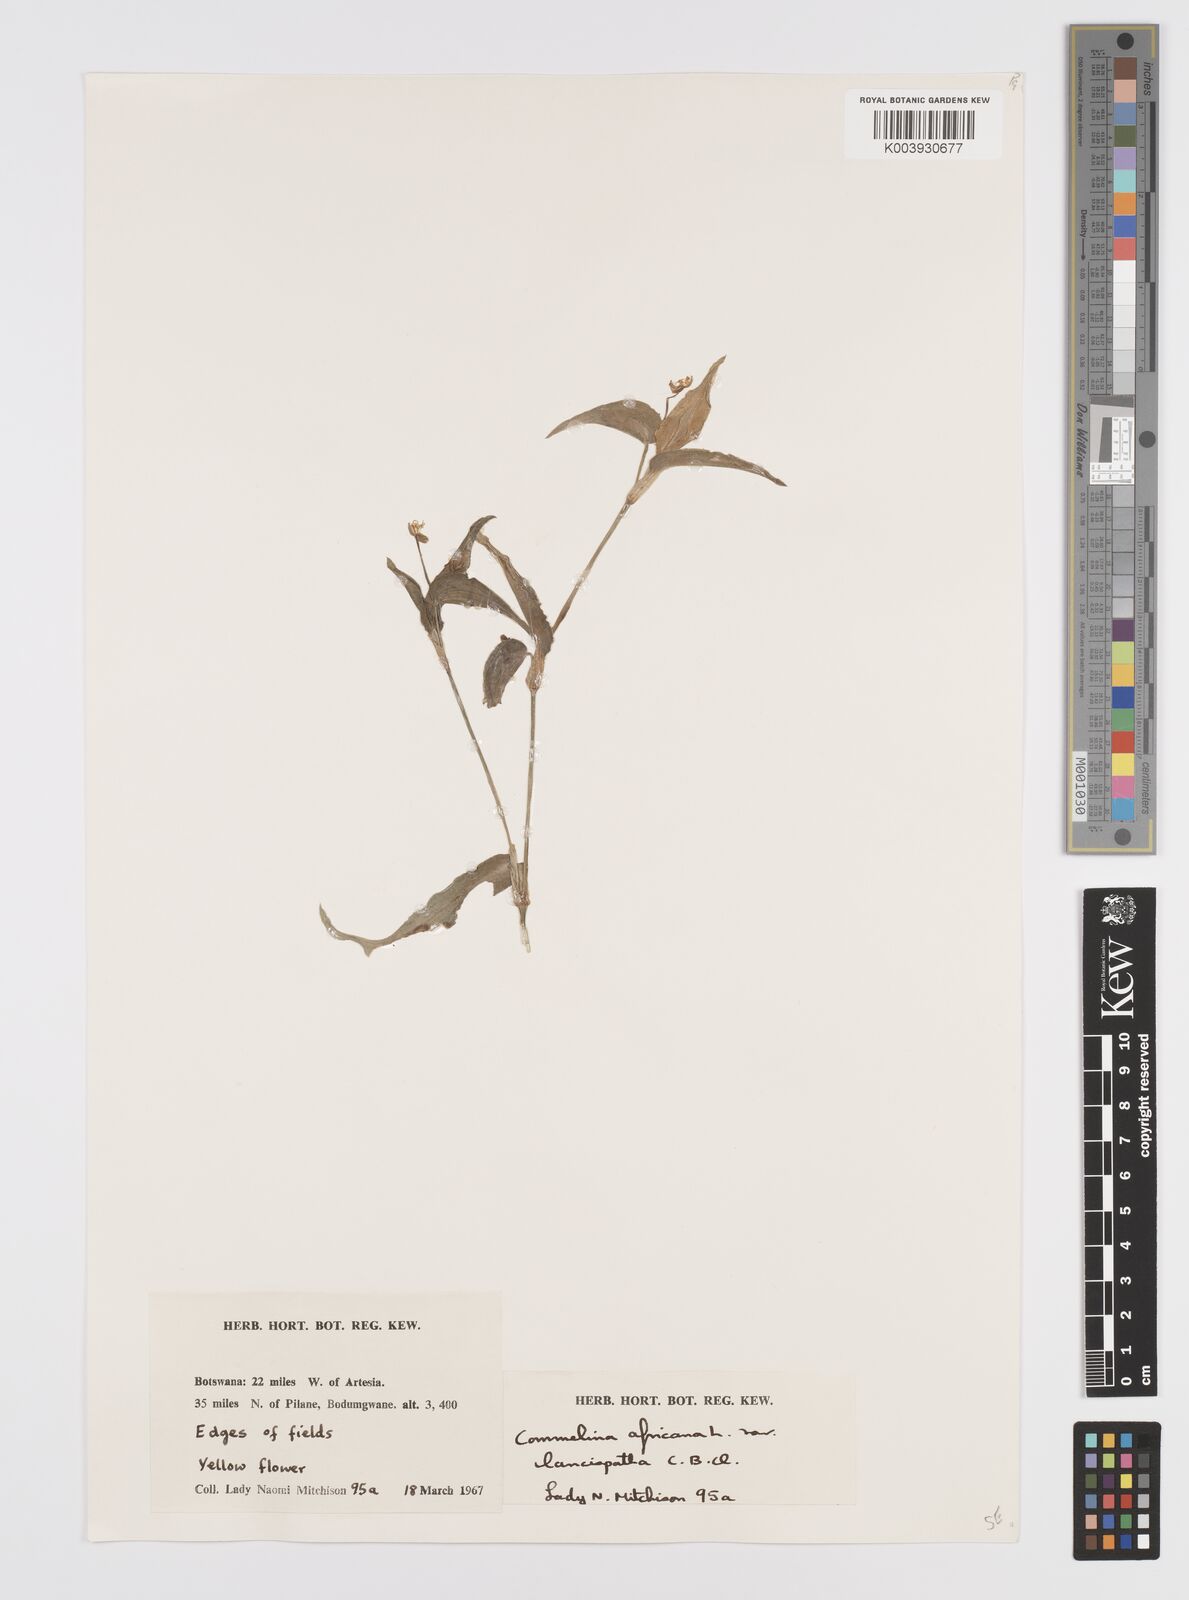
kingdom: Plantae
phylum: Tracheophyta
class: Liliopsida
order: Commelinales
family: Commelinaceae
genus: Commelina
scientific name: Commelina africana
